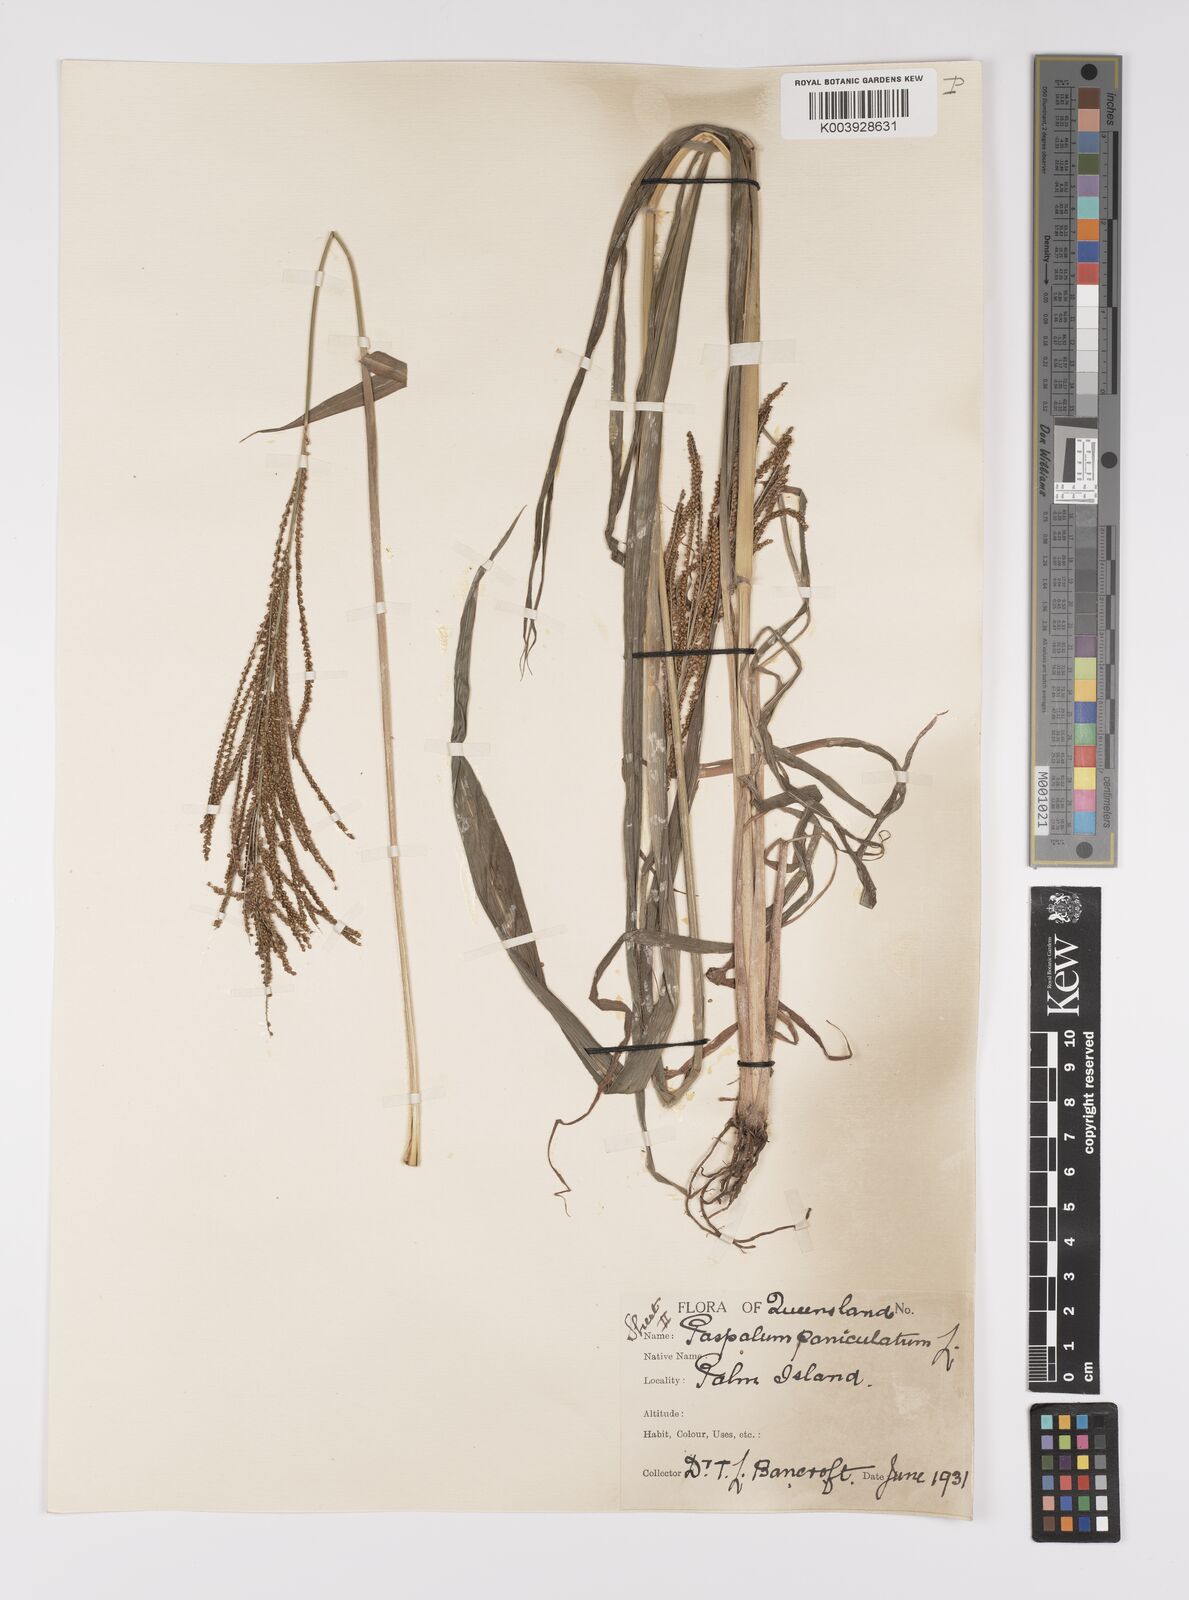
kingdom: Plantae
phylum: Tracheophyta
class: Liliopsida
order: Poales
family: Poaceae
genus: Paspalum
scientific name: Paspalum paniculatum
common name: Arrocillo
